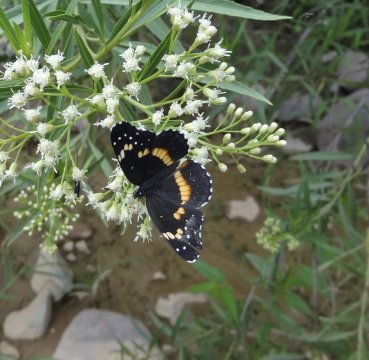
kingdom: Animalia
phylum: Arthropoda
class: Insecta
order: Lepidoptera
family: Nymphalidae
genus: Chlosyne
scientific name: Chlosyne lacinia
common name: Bordered Patch
